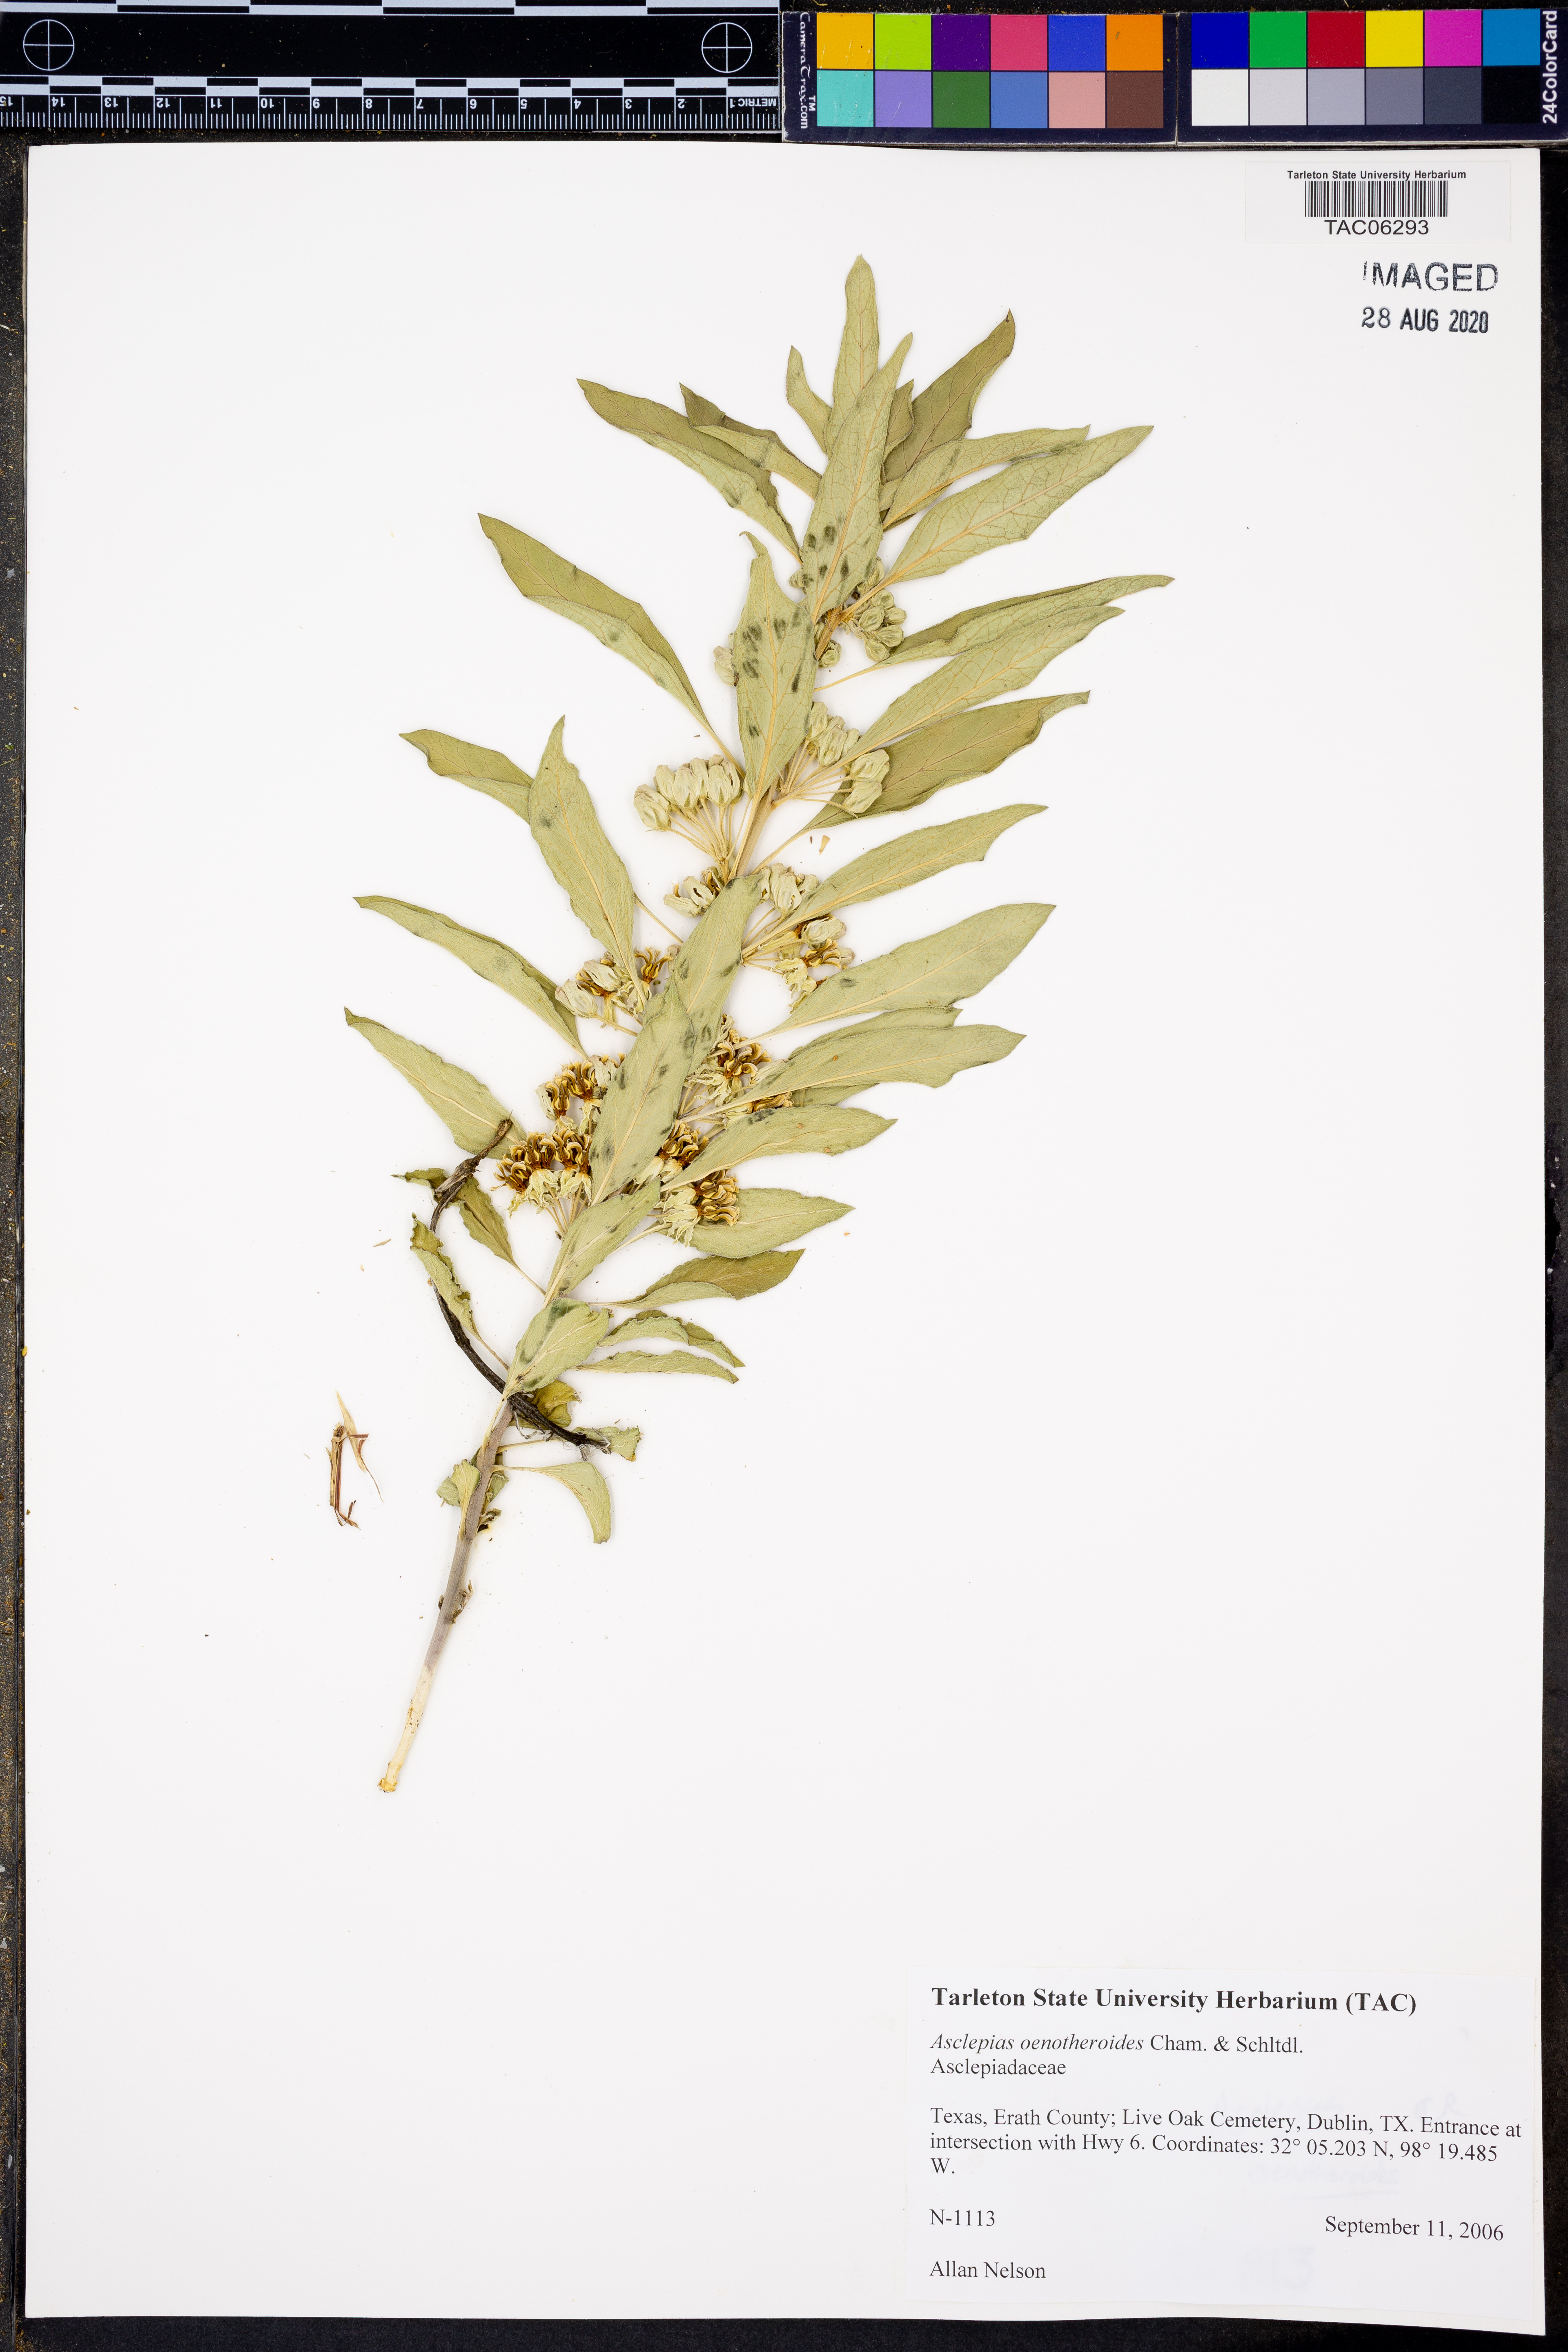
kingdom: Plantae
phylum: Tracheophyta
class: Magnoliopsida
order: Gentianales
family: Apocynaceae
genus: Asclepias
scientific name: Asclepias oenotheroides
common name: Zizotes milkweed
